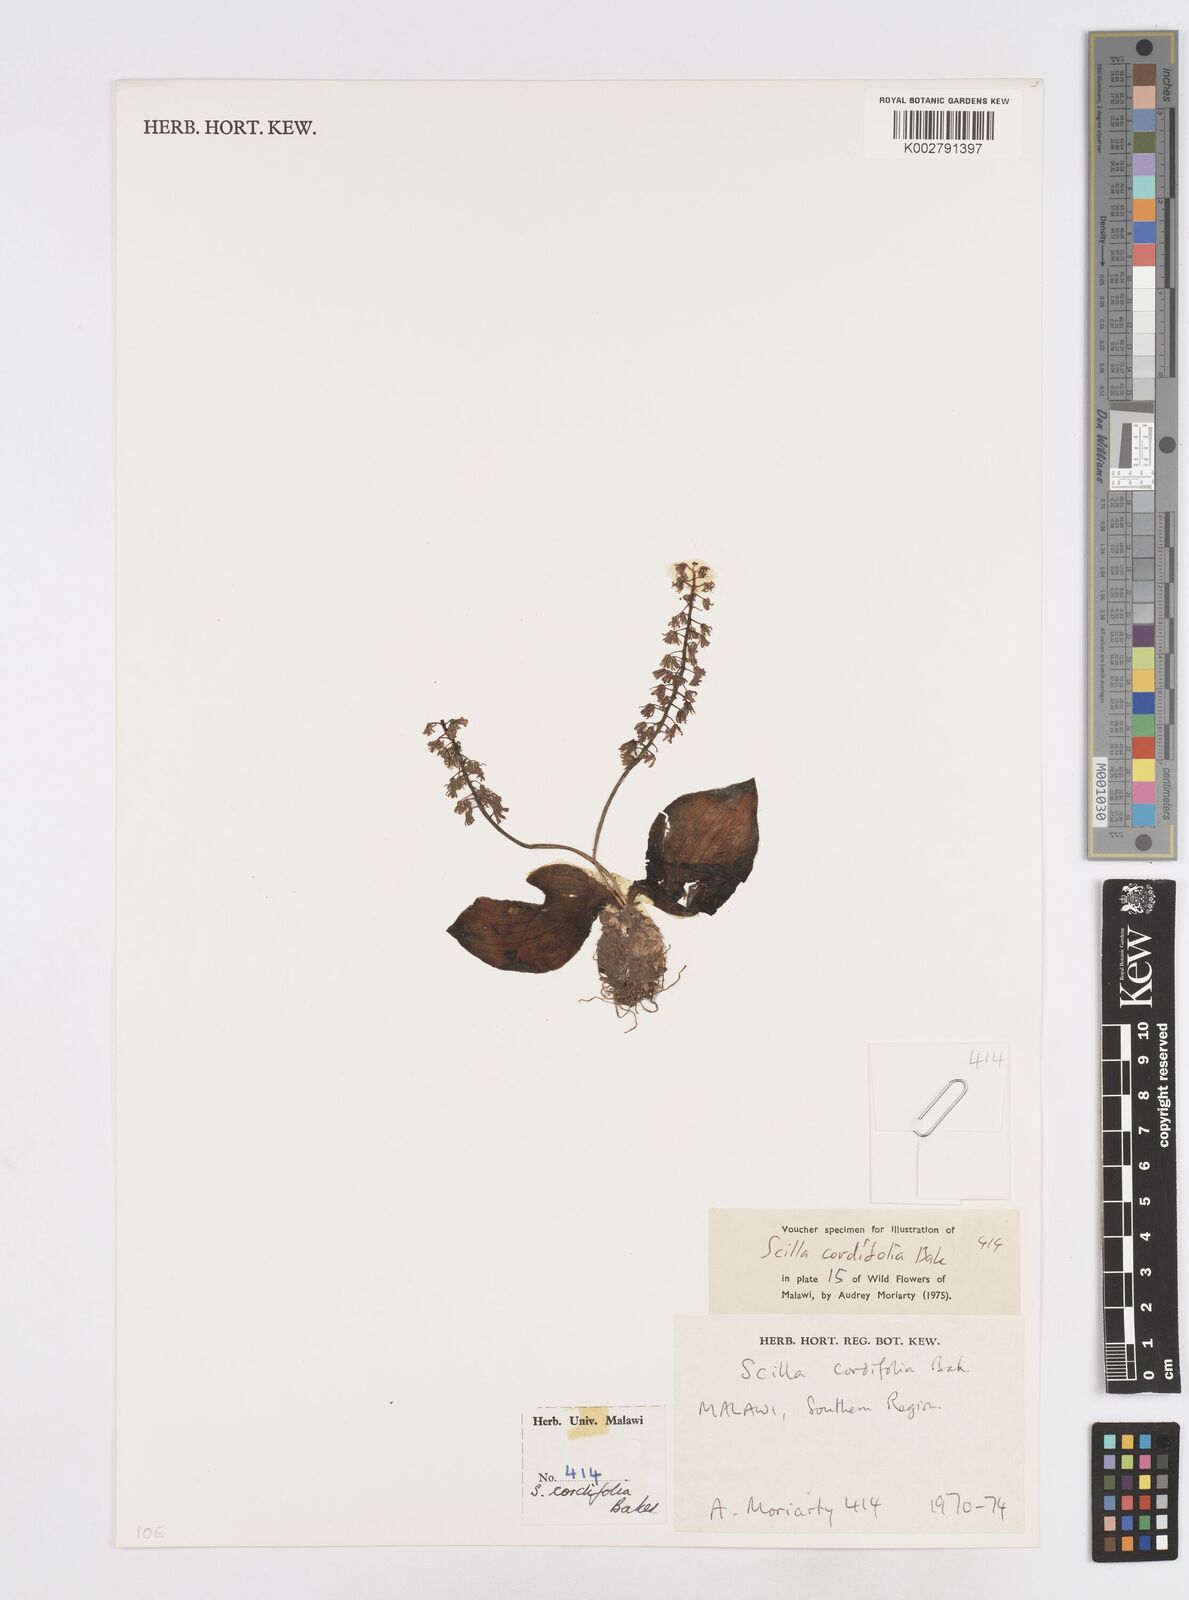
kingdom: Plantae
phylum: Tracheophyta
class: Liliopsida
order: Asparagales
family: Asparagaceae
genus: Ledebouria
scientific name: Ledebouria cordifolia
